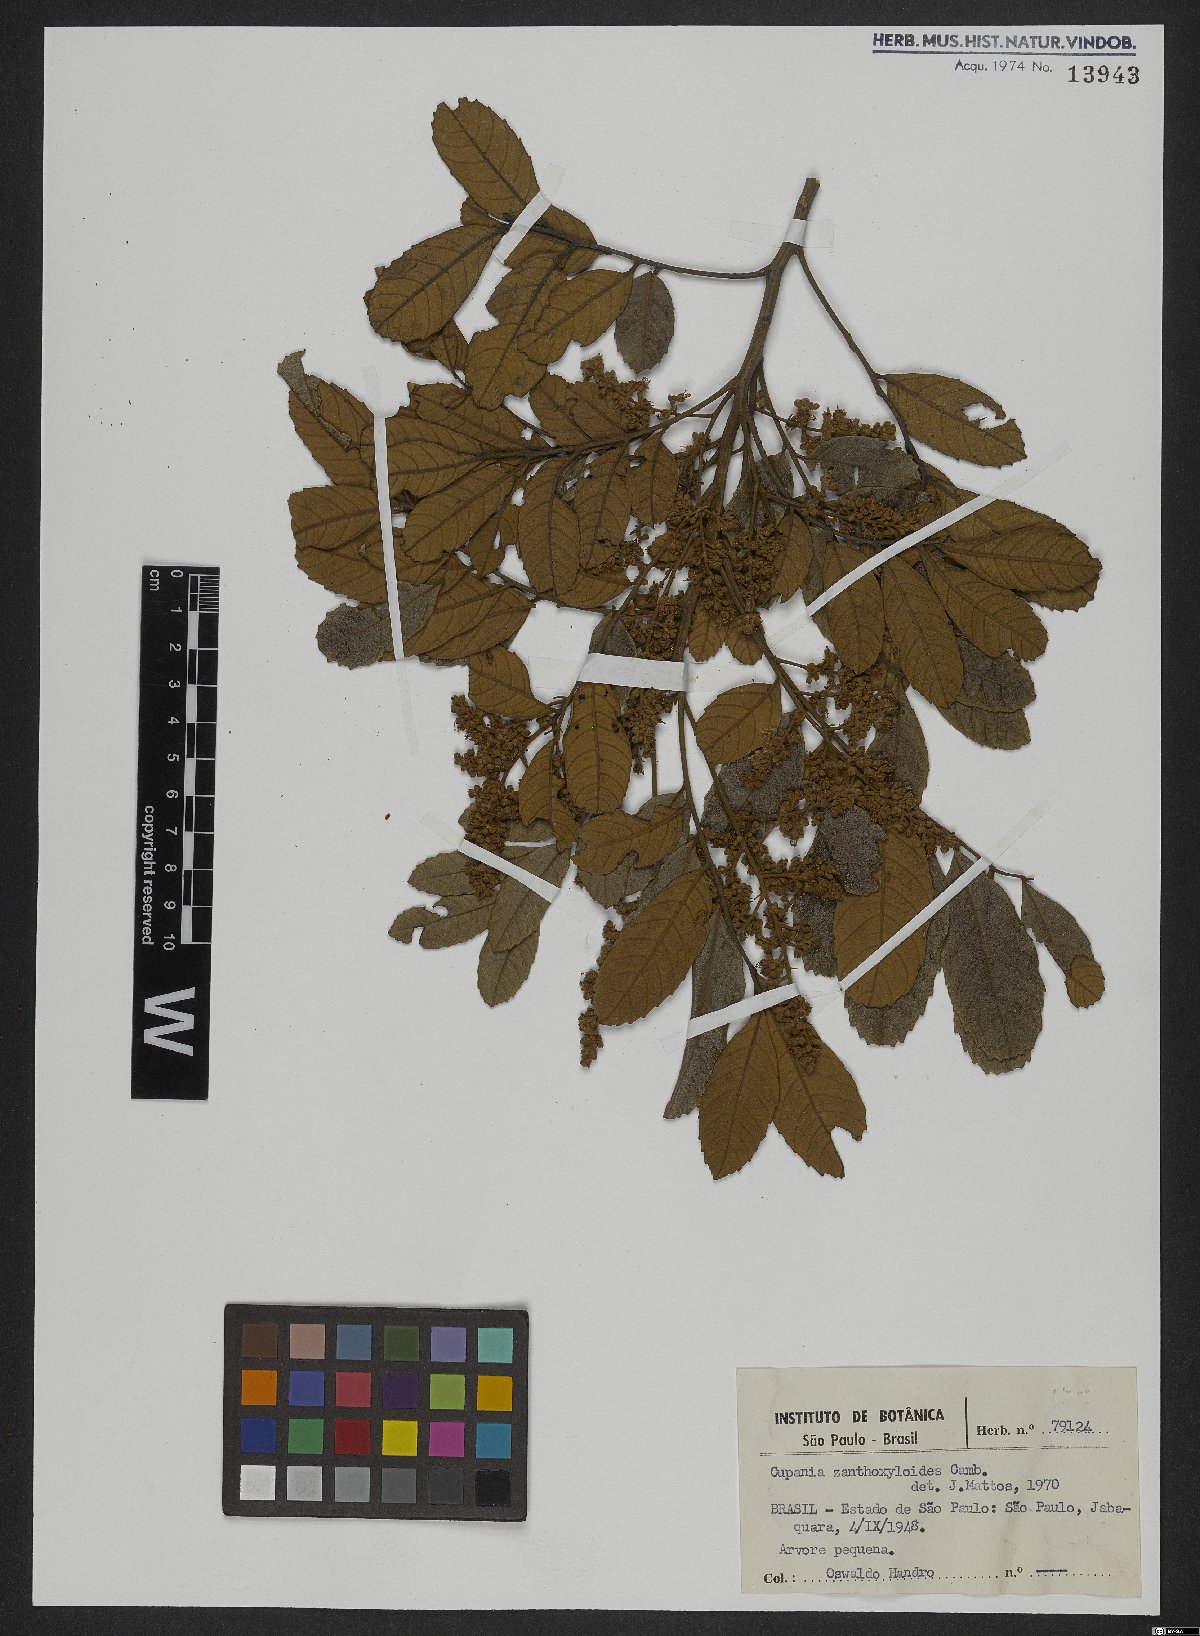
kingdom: Plantae
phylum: Tracheophyta
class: Magnoliopsida
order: Sapindales
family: Sapindaceae
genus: Cupania
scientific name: Cupania zanthoxyloides
